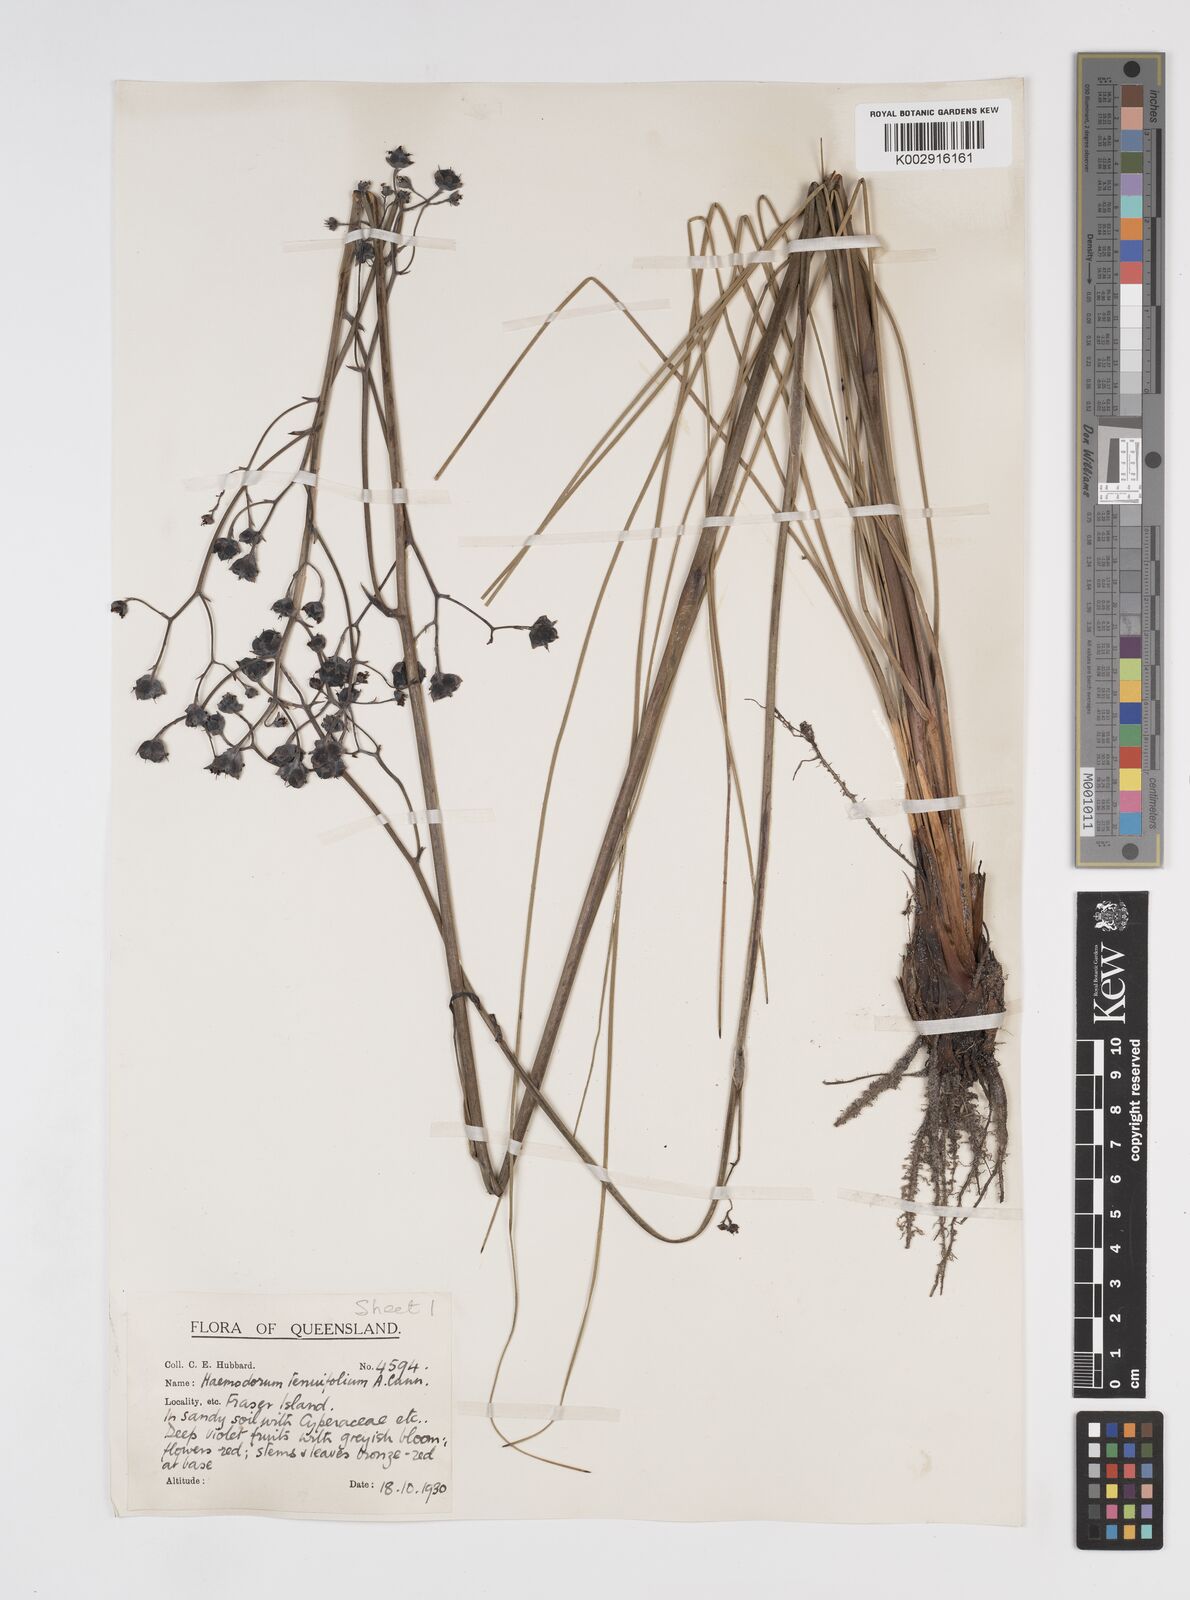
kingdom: Plantae
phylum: Tracheophyta
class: Liliopsida
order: Commelinales
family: Haemodoraceae
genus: Haemodorum
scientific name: Haemodorum tenuifolium
